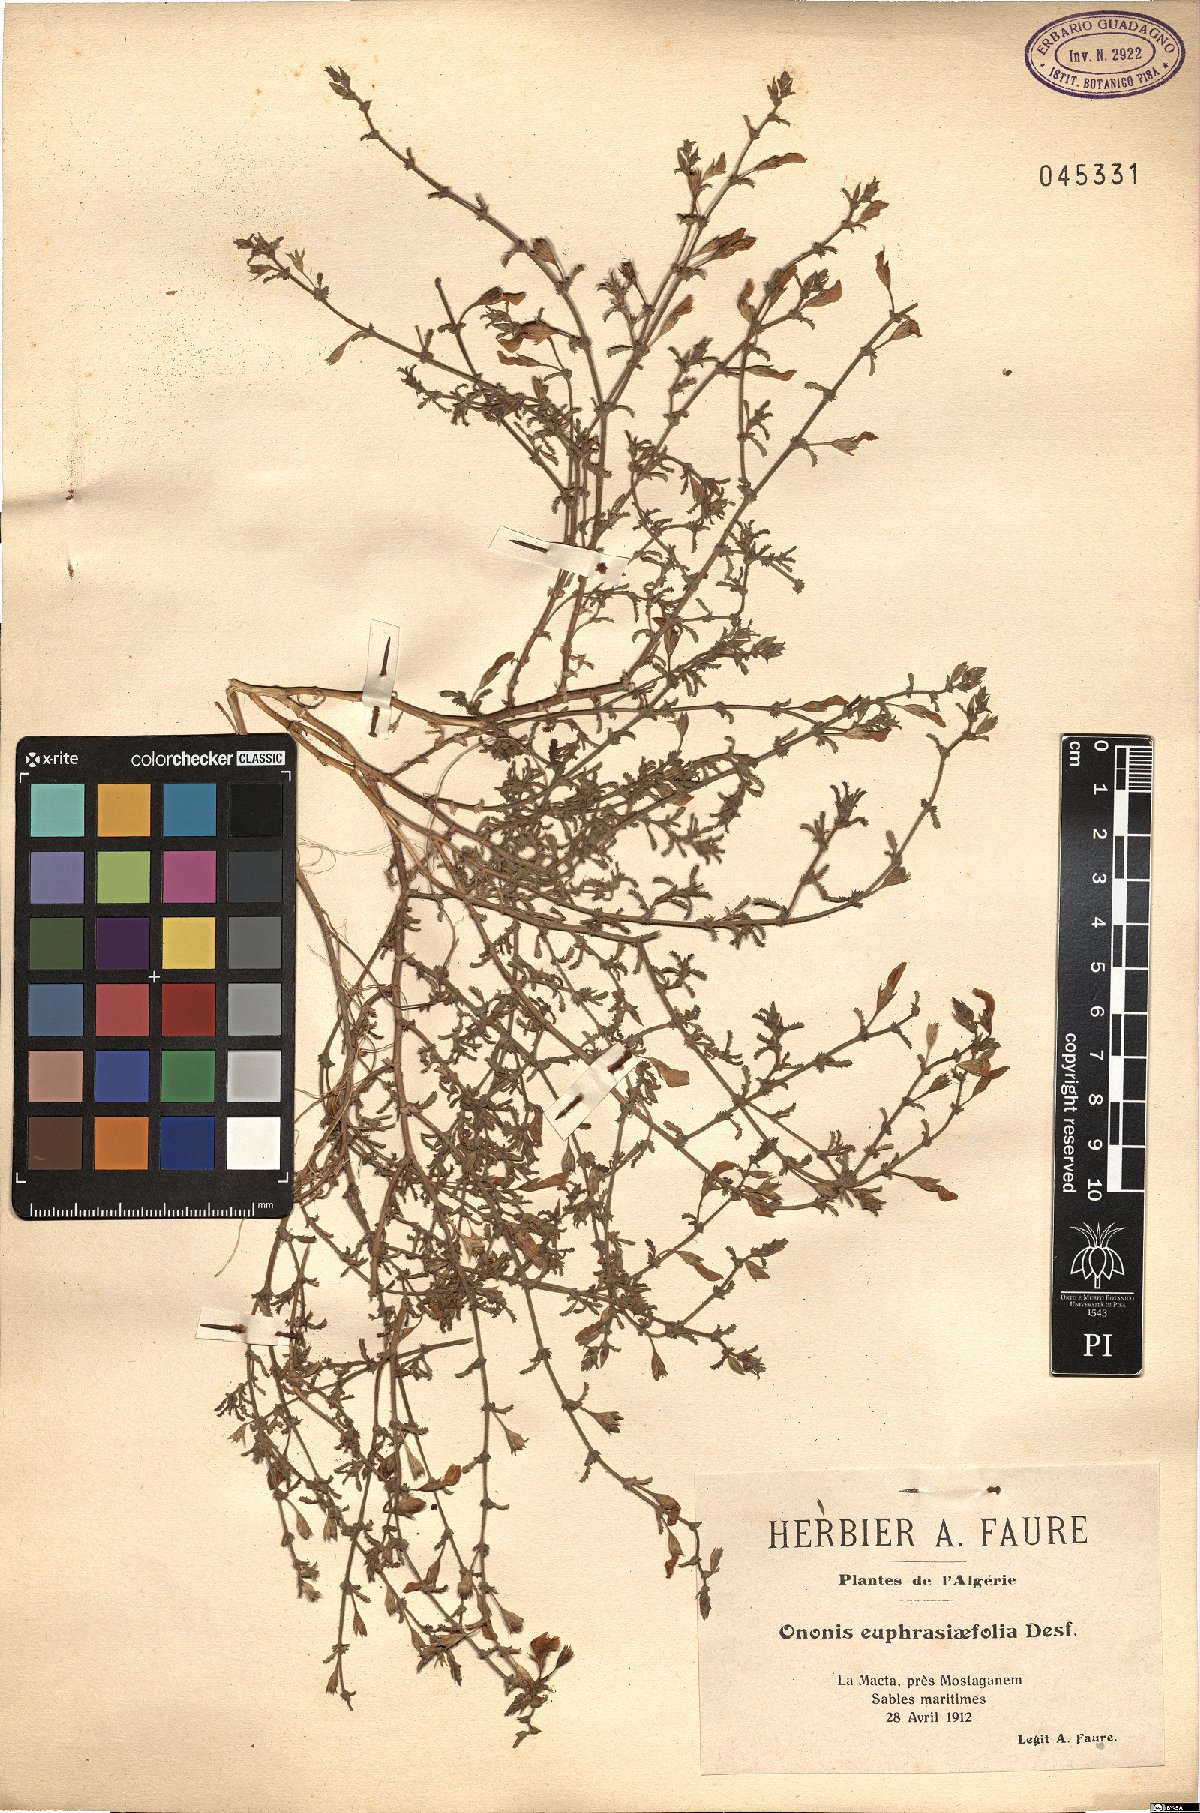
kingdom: Plantae
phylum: Tracheophyta
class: Magnoliopsida
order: Fabales
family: Fabaceae
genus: Ononis
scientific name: Ononis euphrasiifolia
